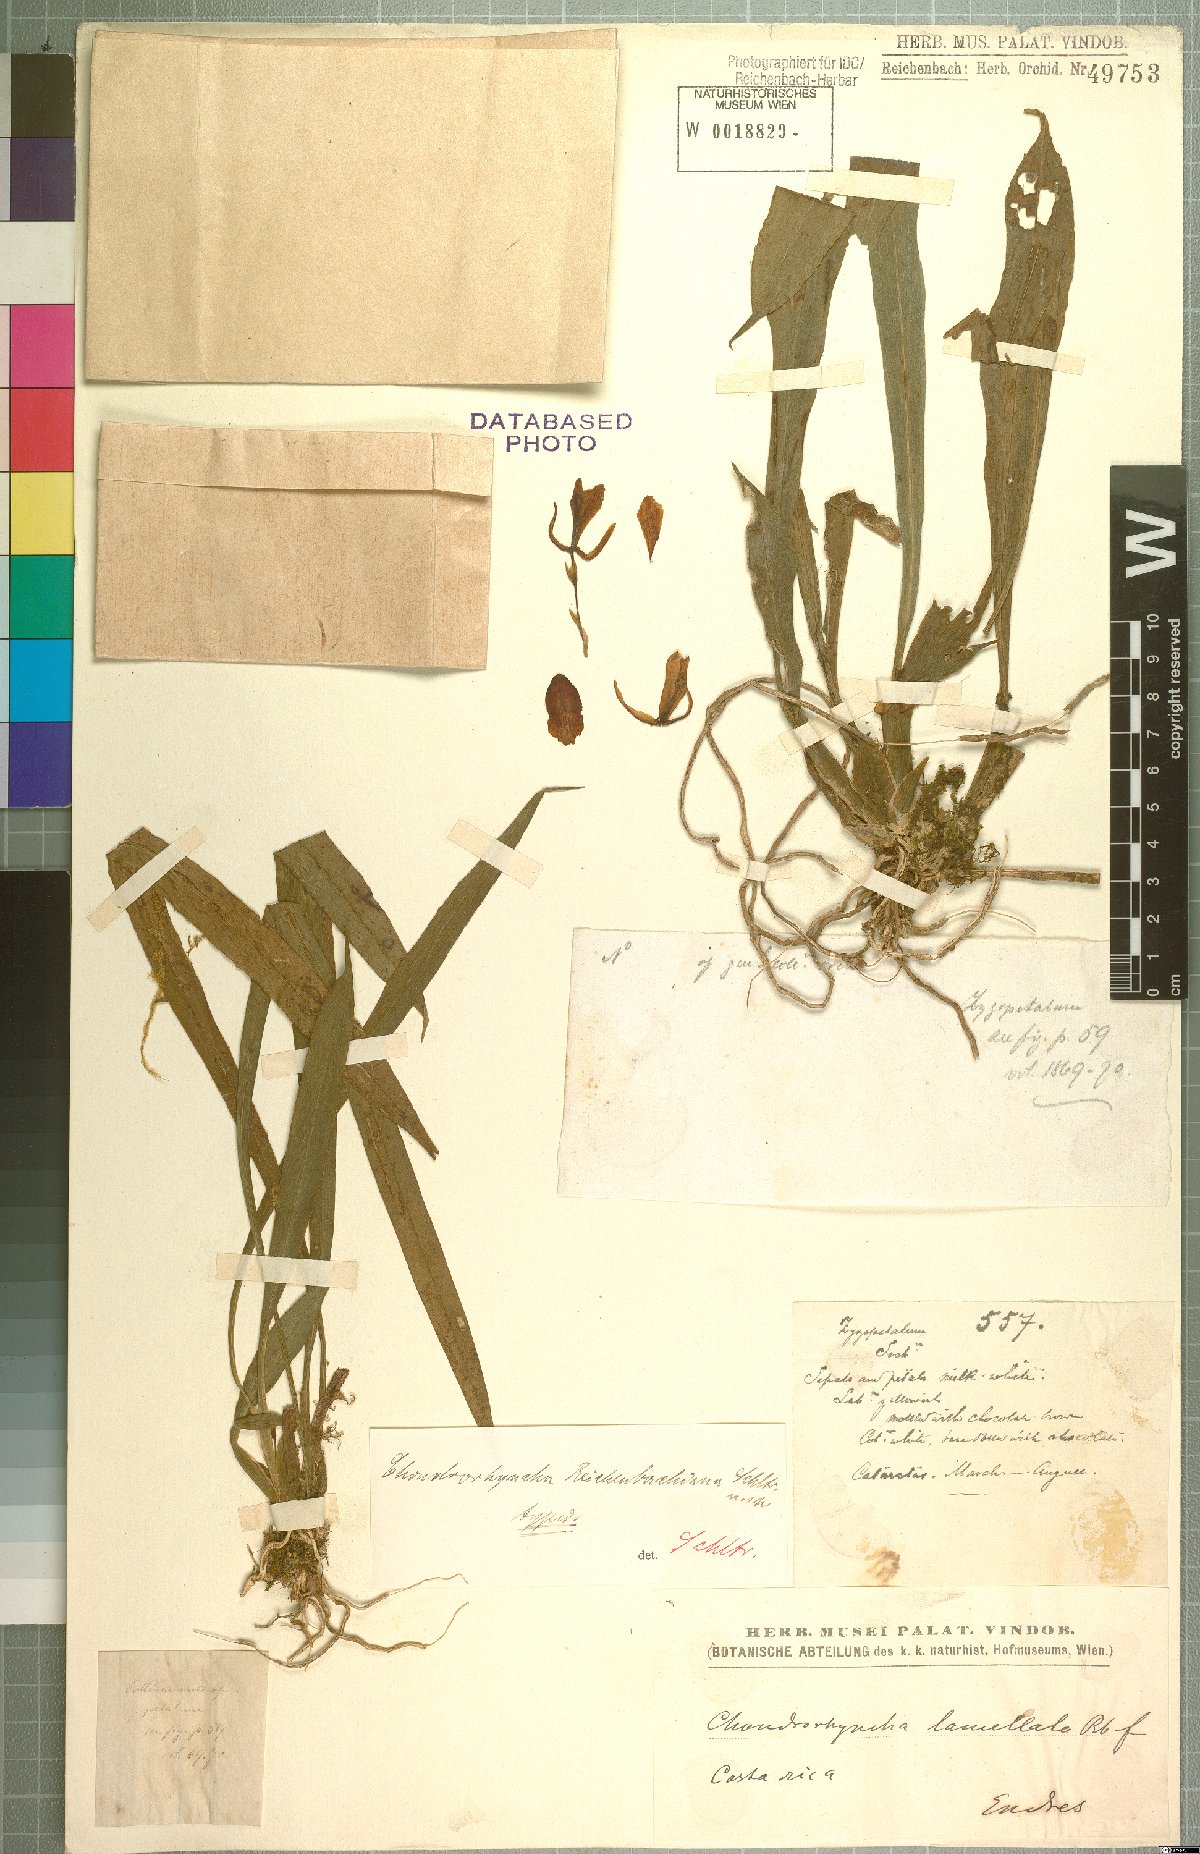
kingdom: Plantae
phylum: Tracheophyta
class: Liliopsida
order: Asparagales
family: Orchidaceae
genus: Benzingia
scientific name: Benzingia reichenbachiana
